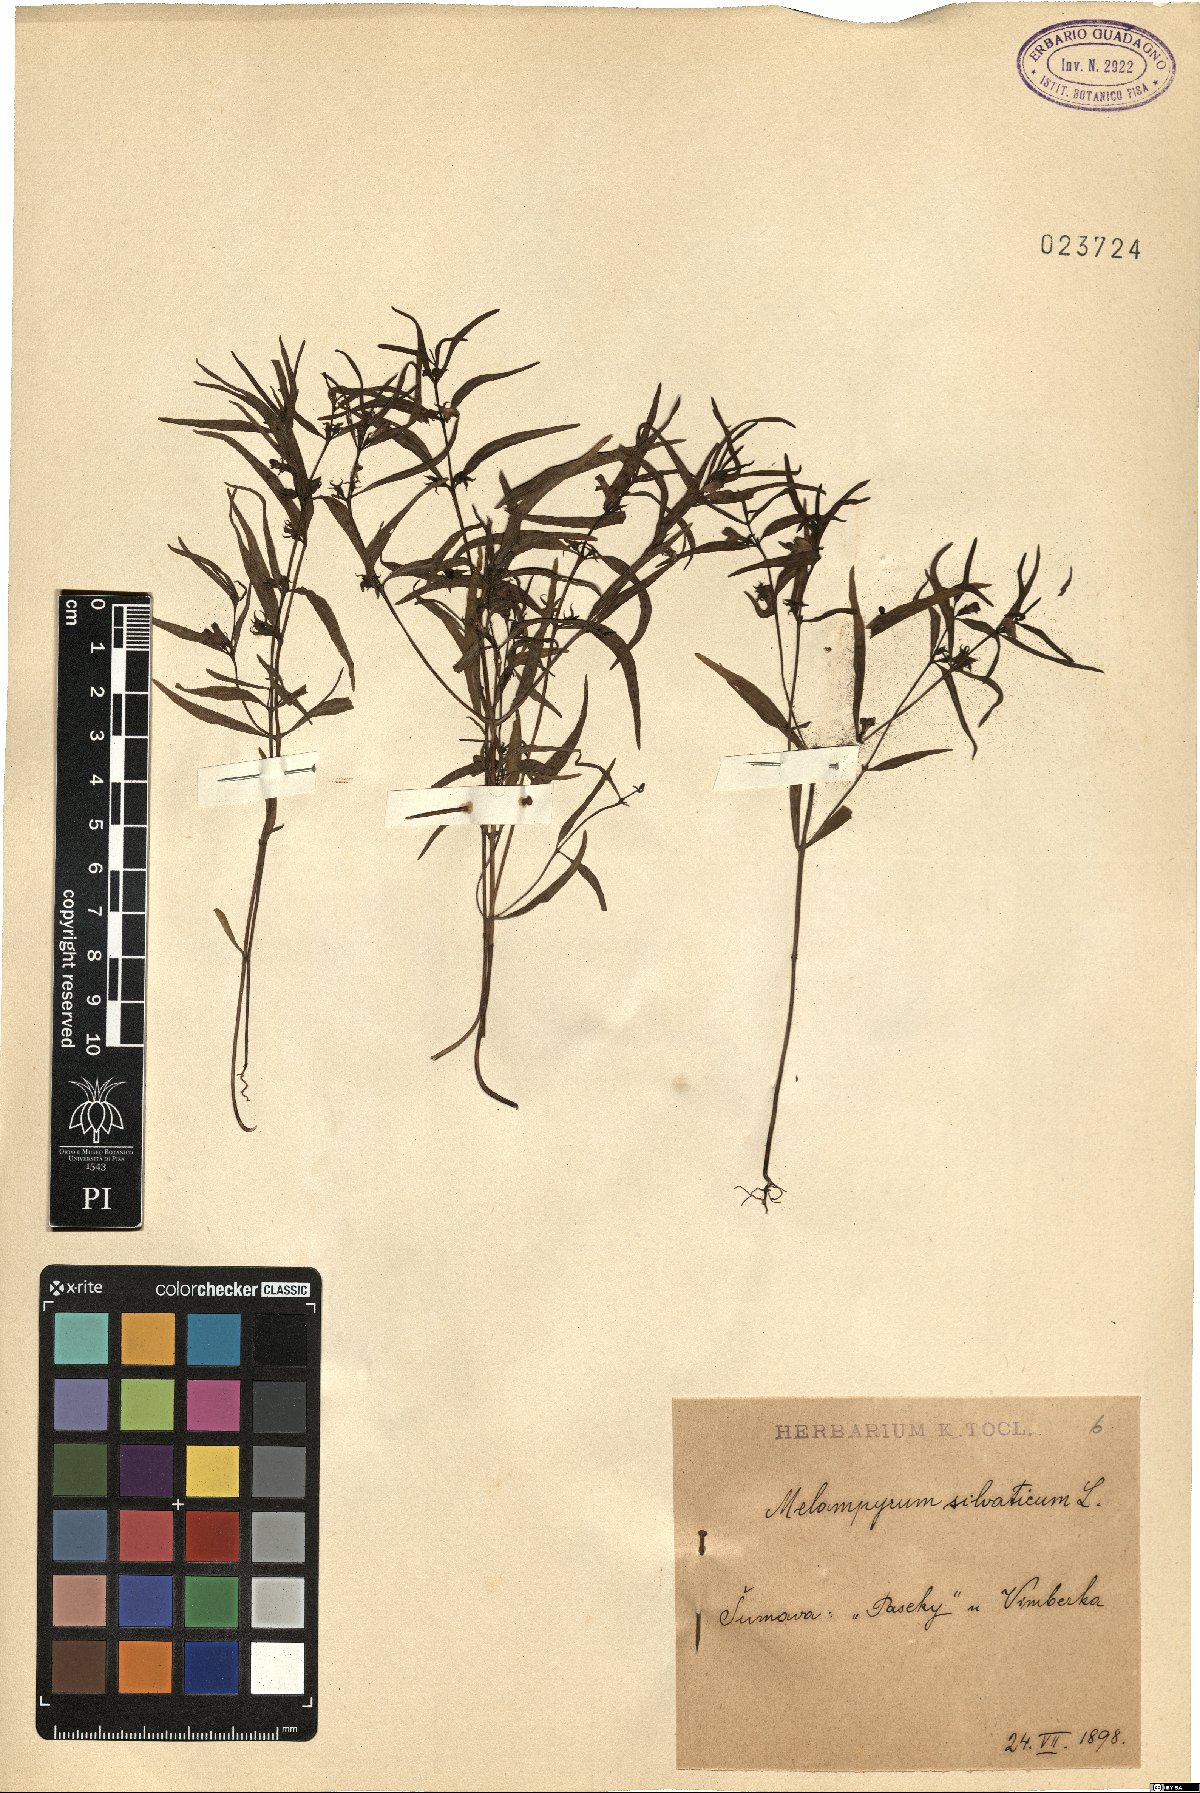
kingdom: Plantae
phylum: Tracheophyta
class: Magnoliopsida
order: Lamiales
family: Orobanchaceae
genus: Melampyrum
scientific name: Melampyrum sylvaticum
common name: Small cow-wheat
